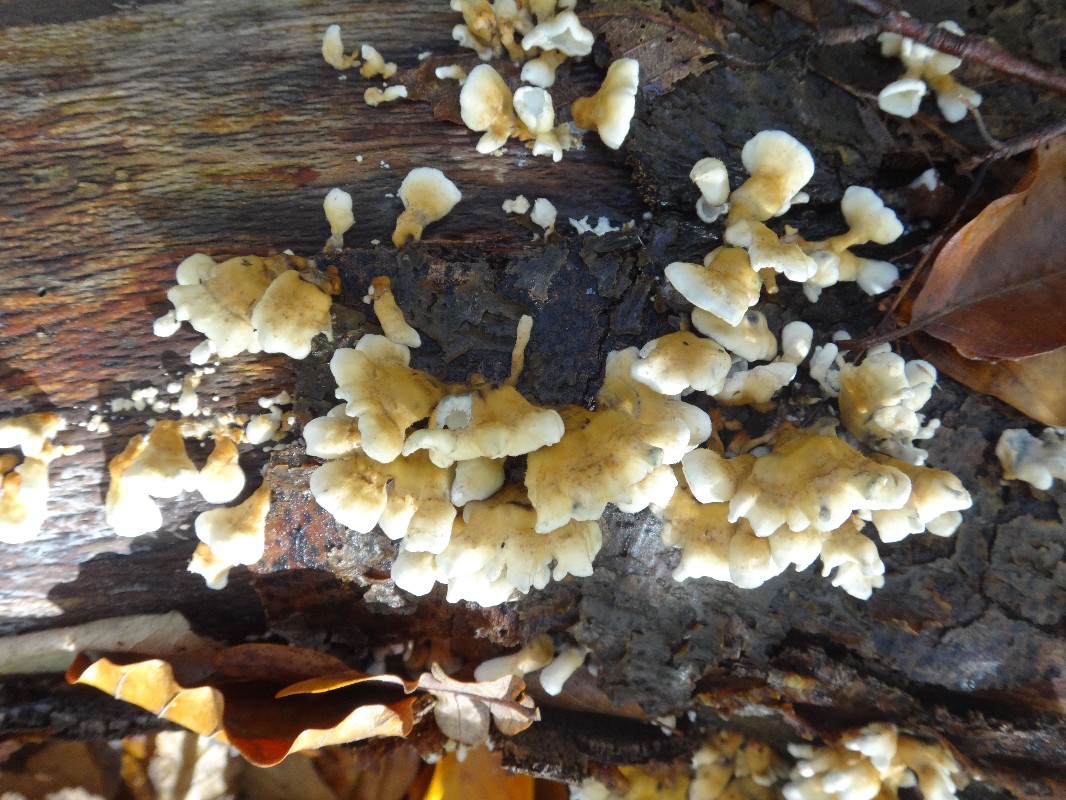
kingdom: Fungi
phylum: Basidiomycota
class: Agaricomycetes
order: Amylocorticiales
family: Amylocorticiaceae
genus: Plicaturopsis
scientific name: Plicaturopsis crispa
